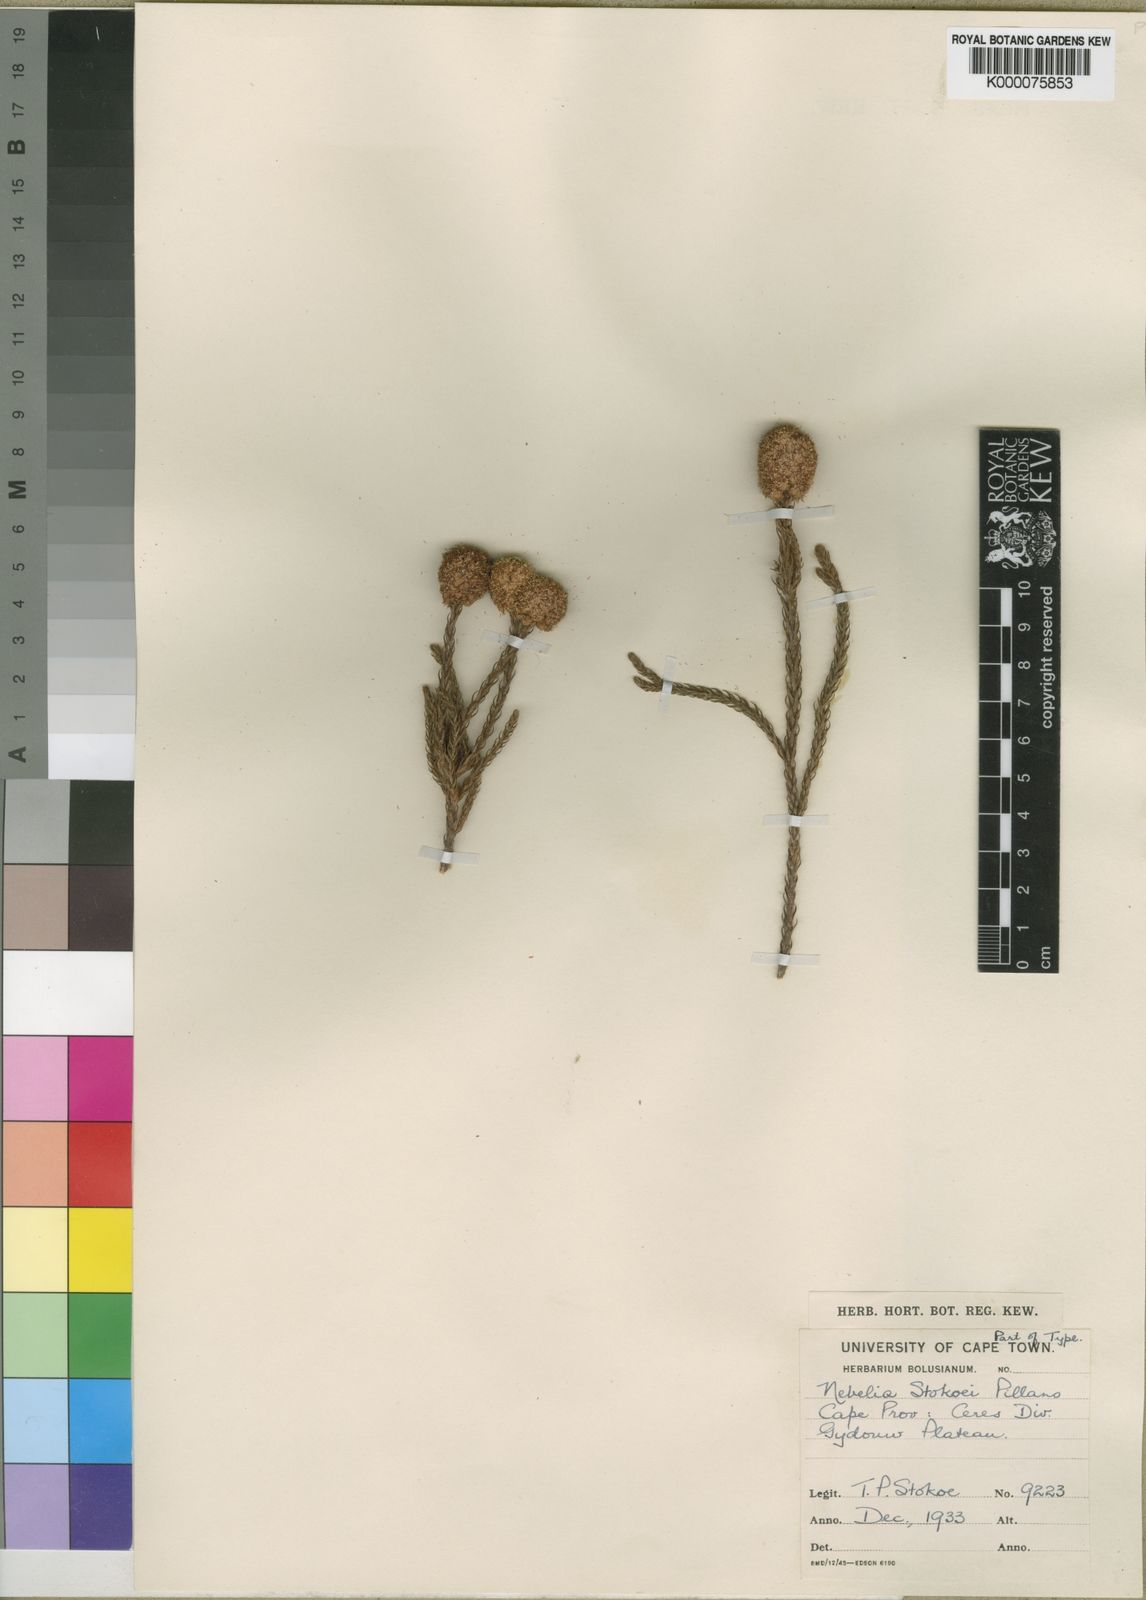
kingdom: Plantae
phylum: Tracheophyta
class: Magnoliopsida
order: Bruniales
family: Bruniaceae
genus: Brunia
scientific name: Brunia powrieae
